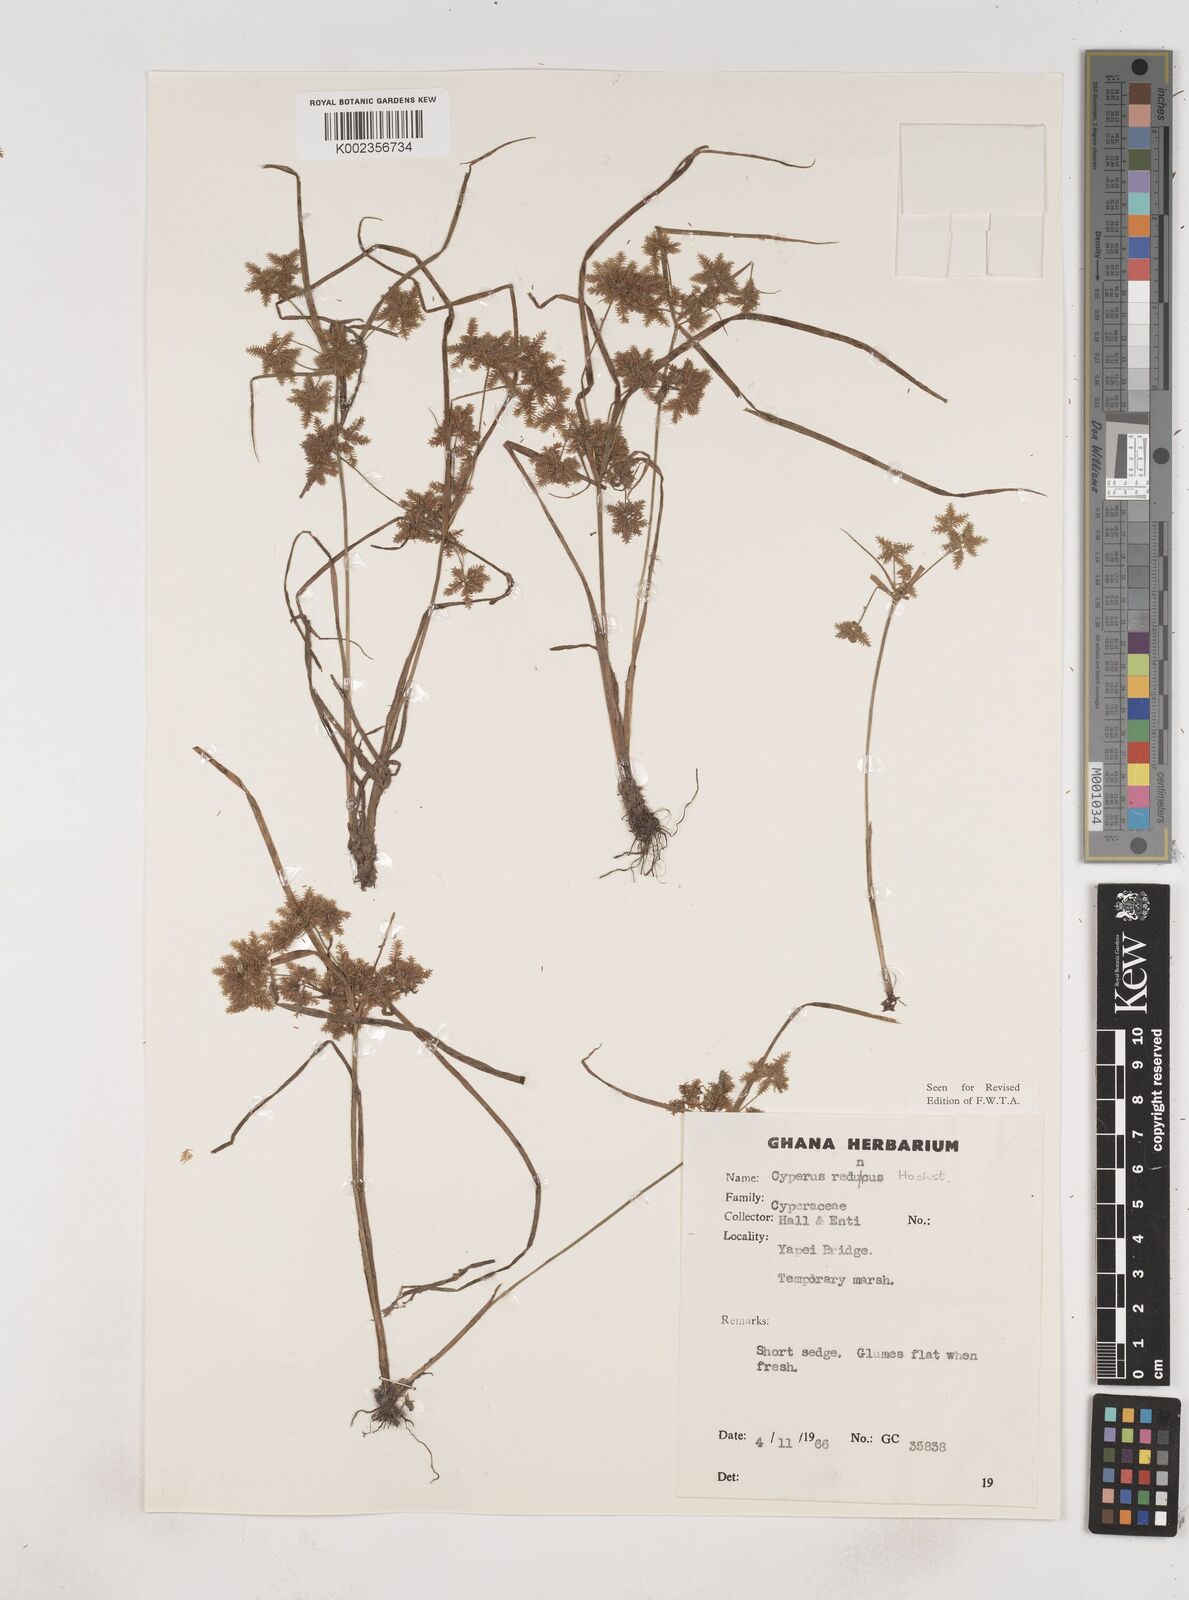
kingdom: Plantae
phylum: Tracheophyta
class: Liliopsida
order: Poales
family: Cyperaceae
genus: Cyperus
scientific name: Cyperus reduncus
